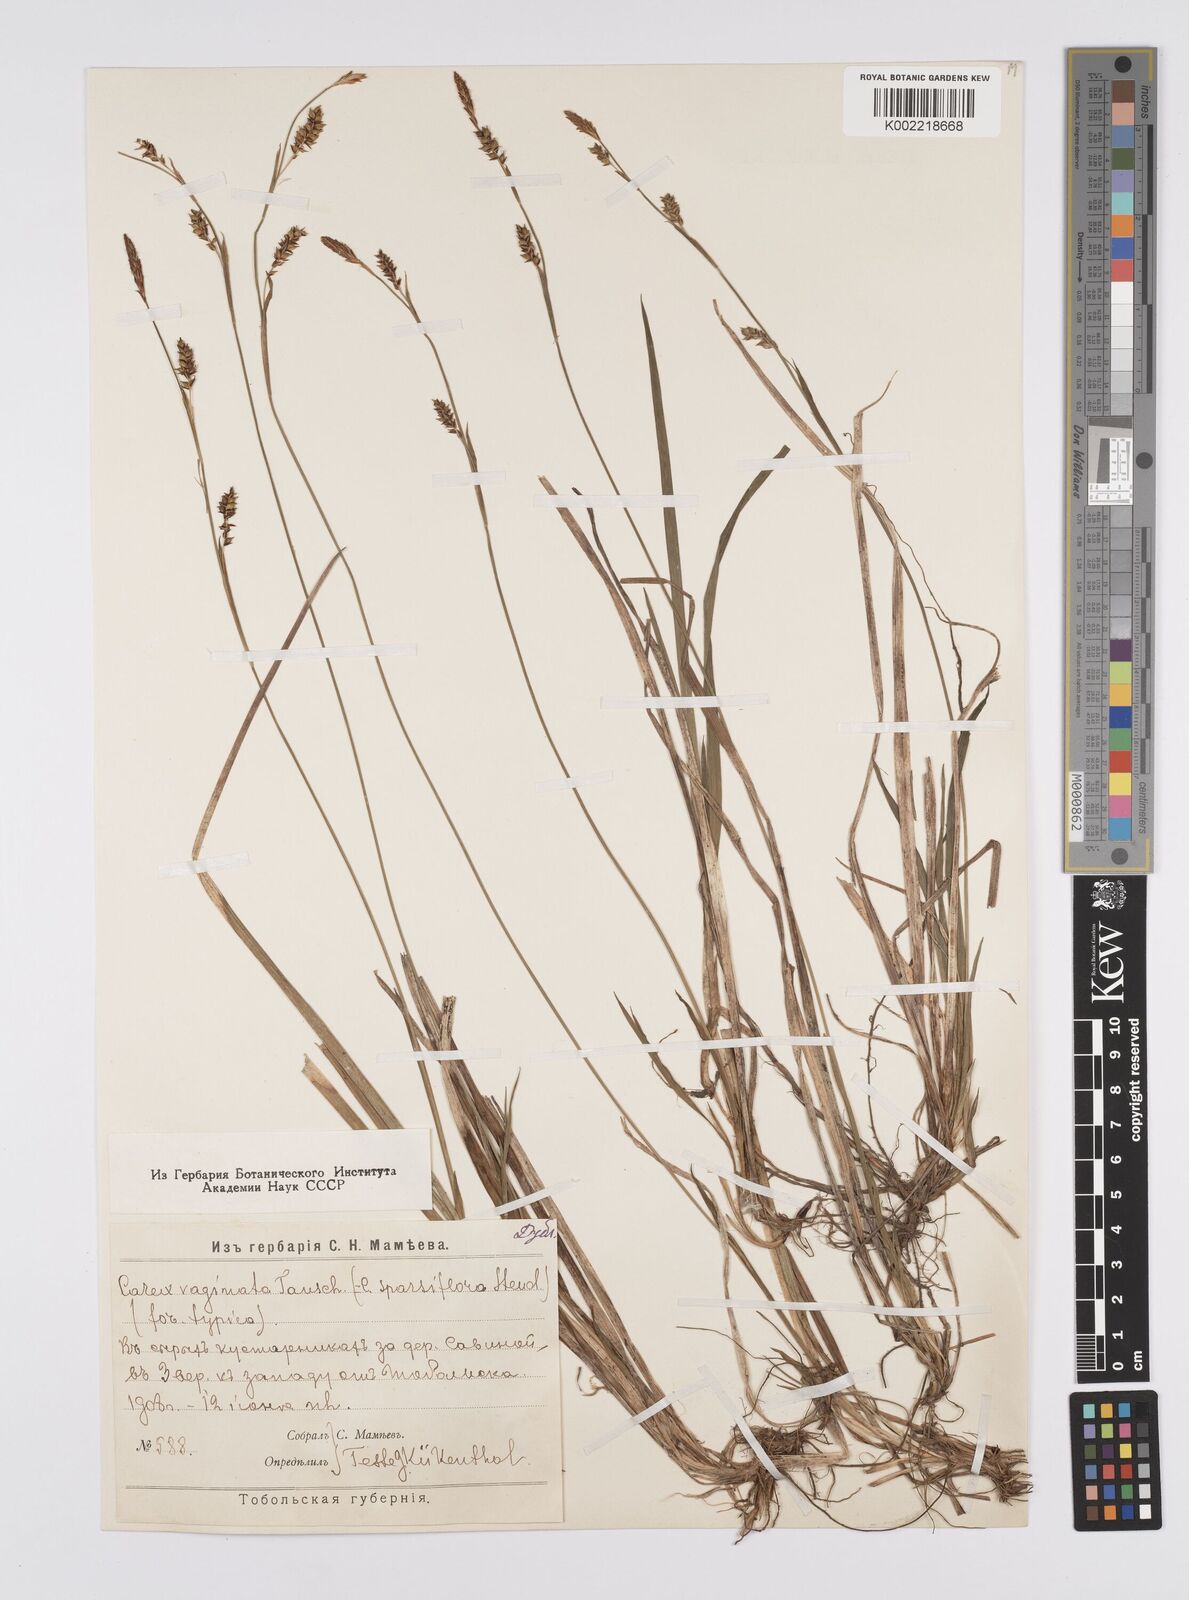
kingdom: Plantae
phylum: Tracheophyta
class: Liliopsida
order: Poales
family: Cyperaceae
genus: Carex
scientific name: Carex vaginata
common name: Sheathed sedge
